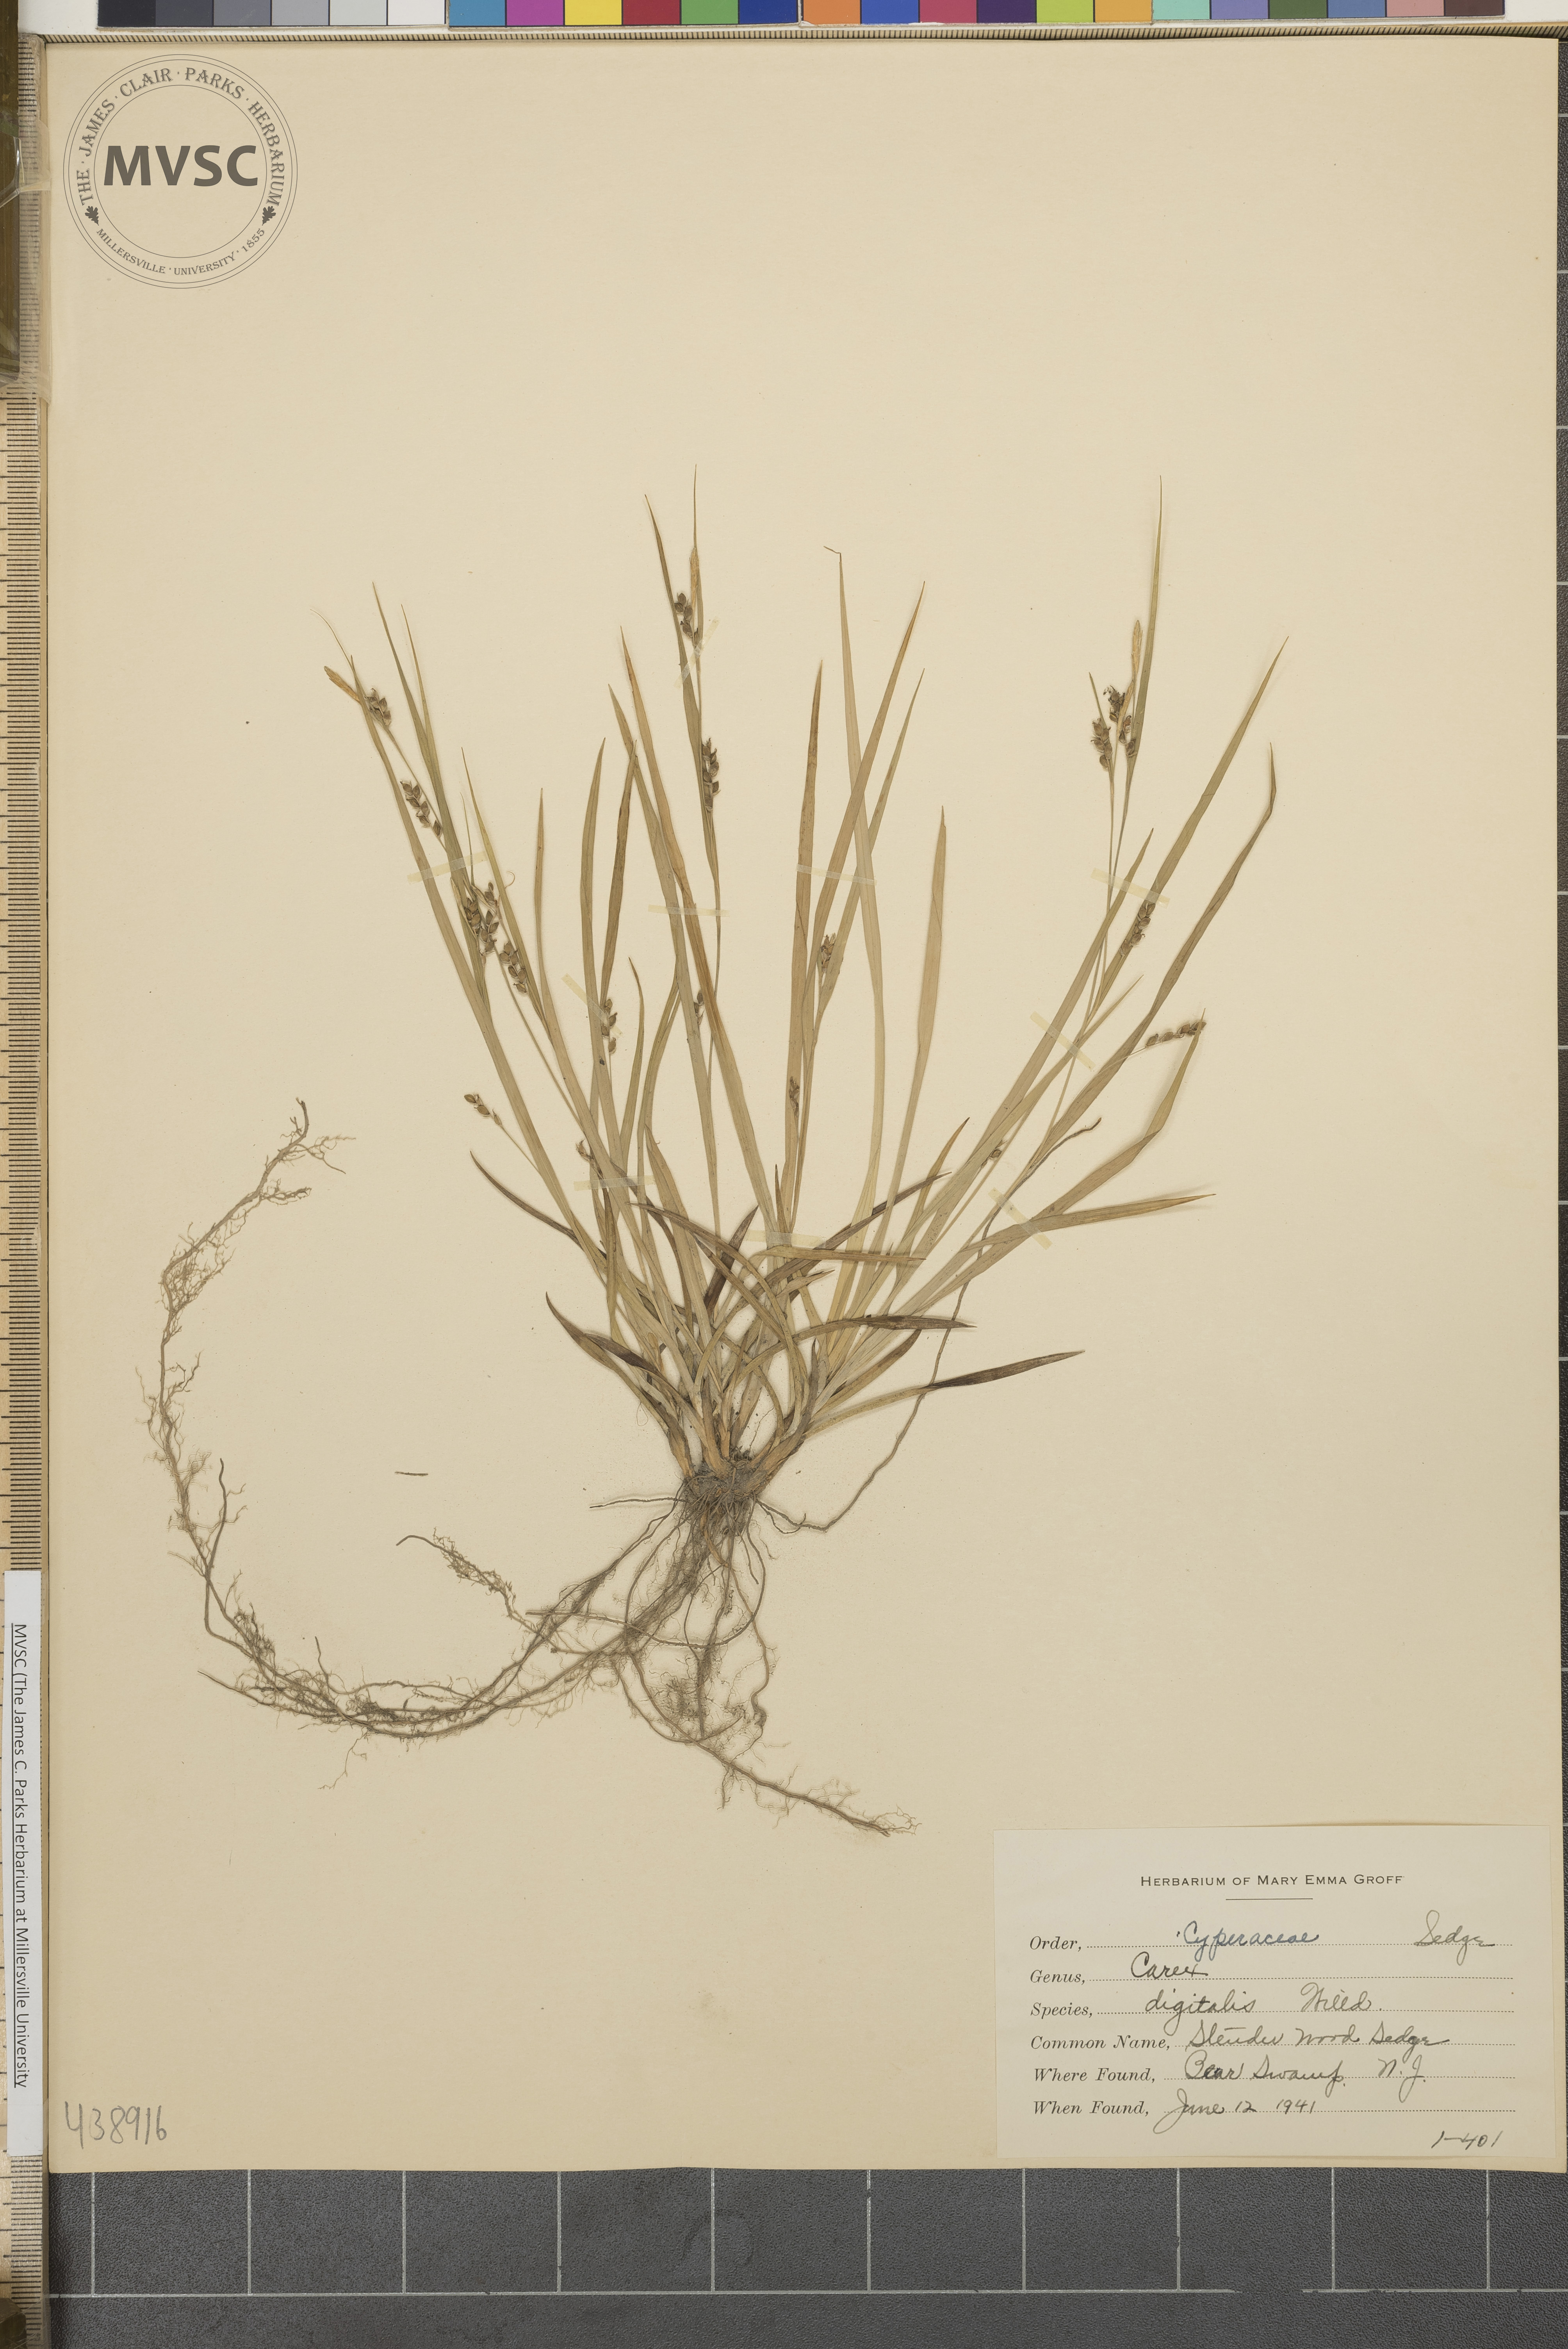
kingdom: Plantae
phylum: Tracheophyta
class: Liliopsida
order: Poales
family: Cyperaceae
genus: Carex
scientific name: Carex digitalis
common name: Slender wood sedge
